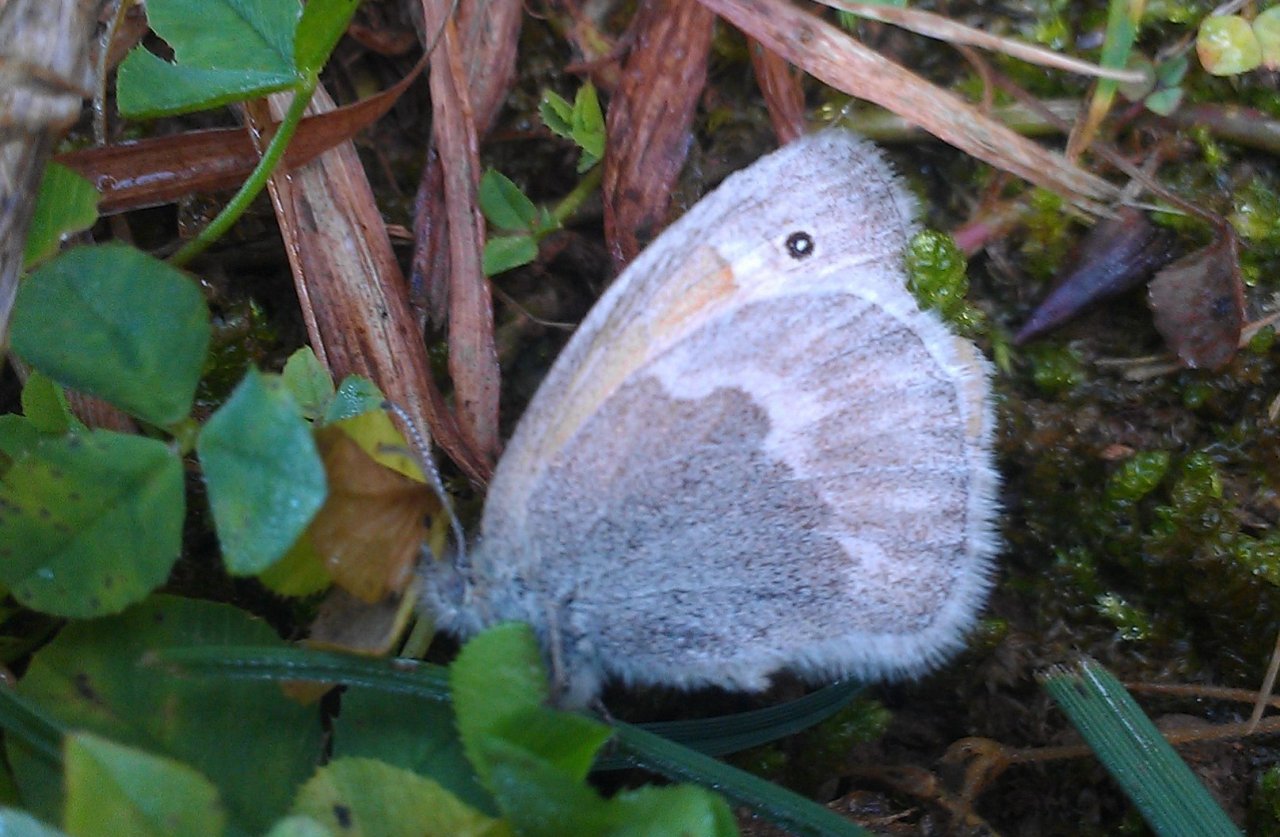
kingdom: Animalia
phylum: Arthropoda
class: Insecta
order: Lepidoptera
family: Nymphalidae
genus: Coenonympha
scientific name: Coenonympha tullia
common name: Large Heath
